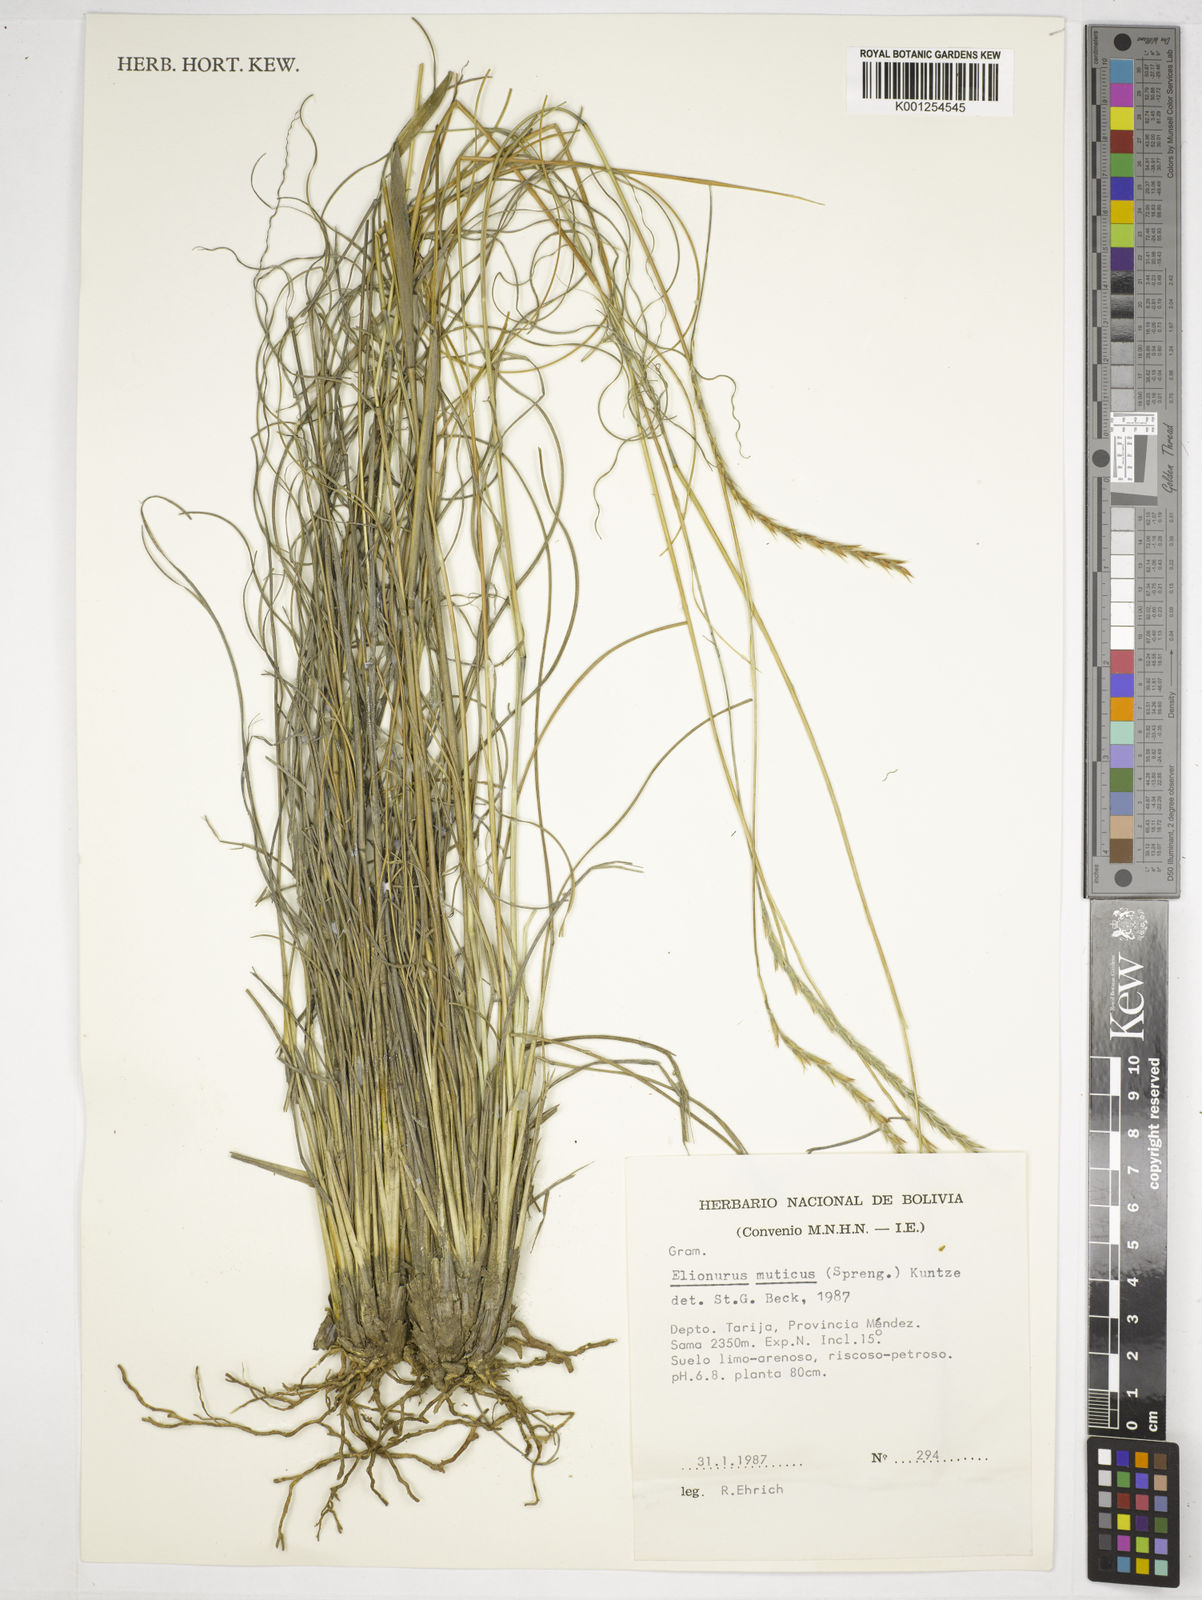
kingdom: Plantae
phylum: Tracheophyta
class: Liliopsida
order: Poales
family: Poaceae
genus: Elionurus
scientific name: Elionurus muticus
